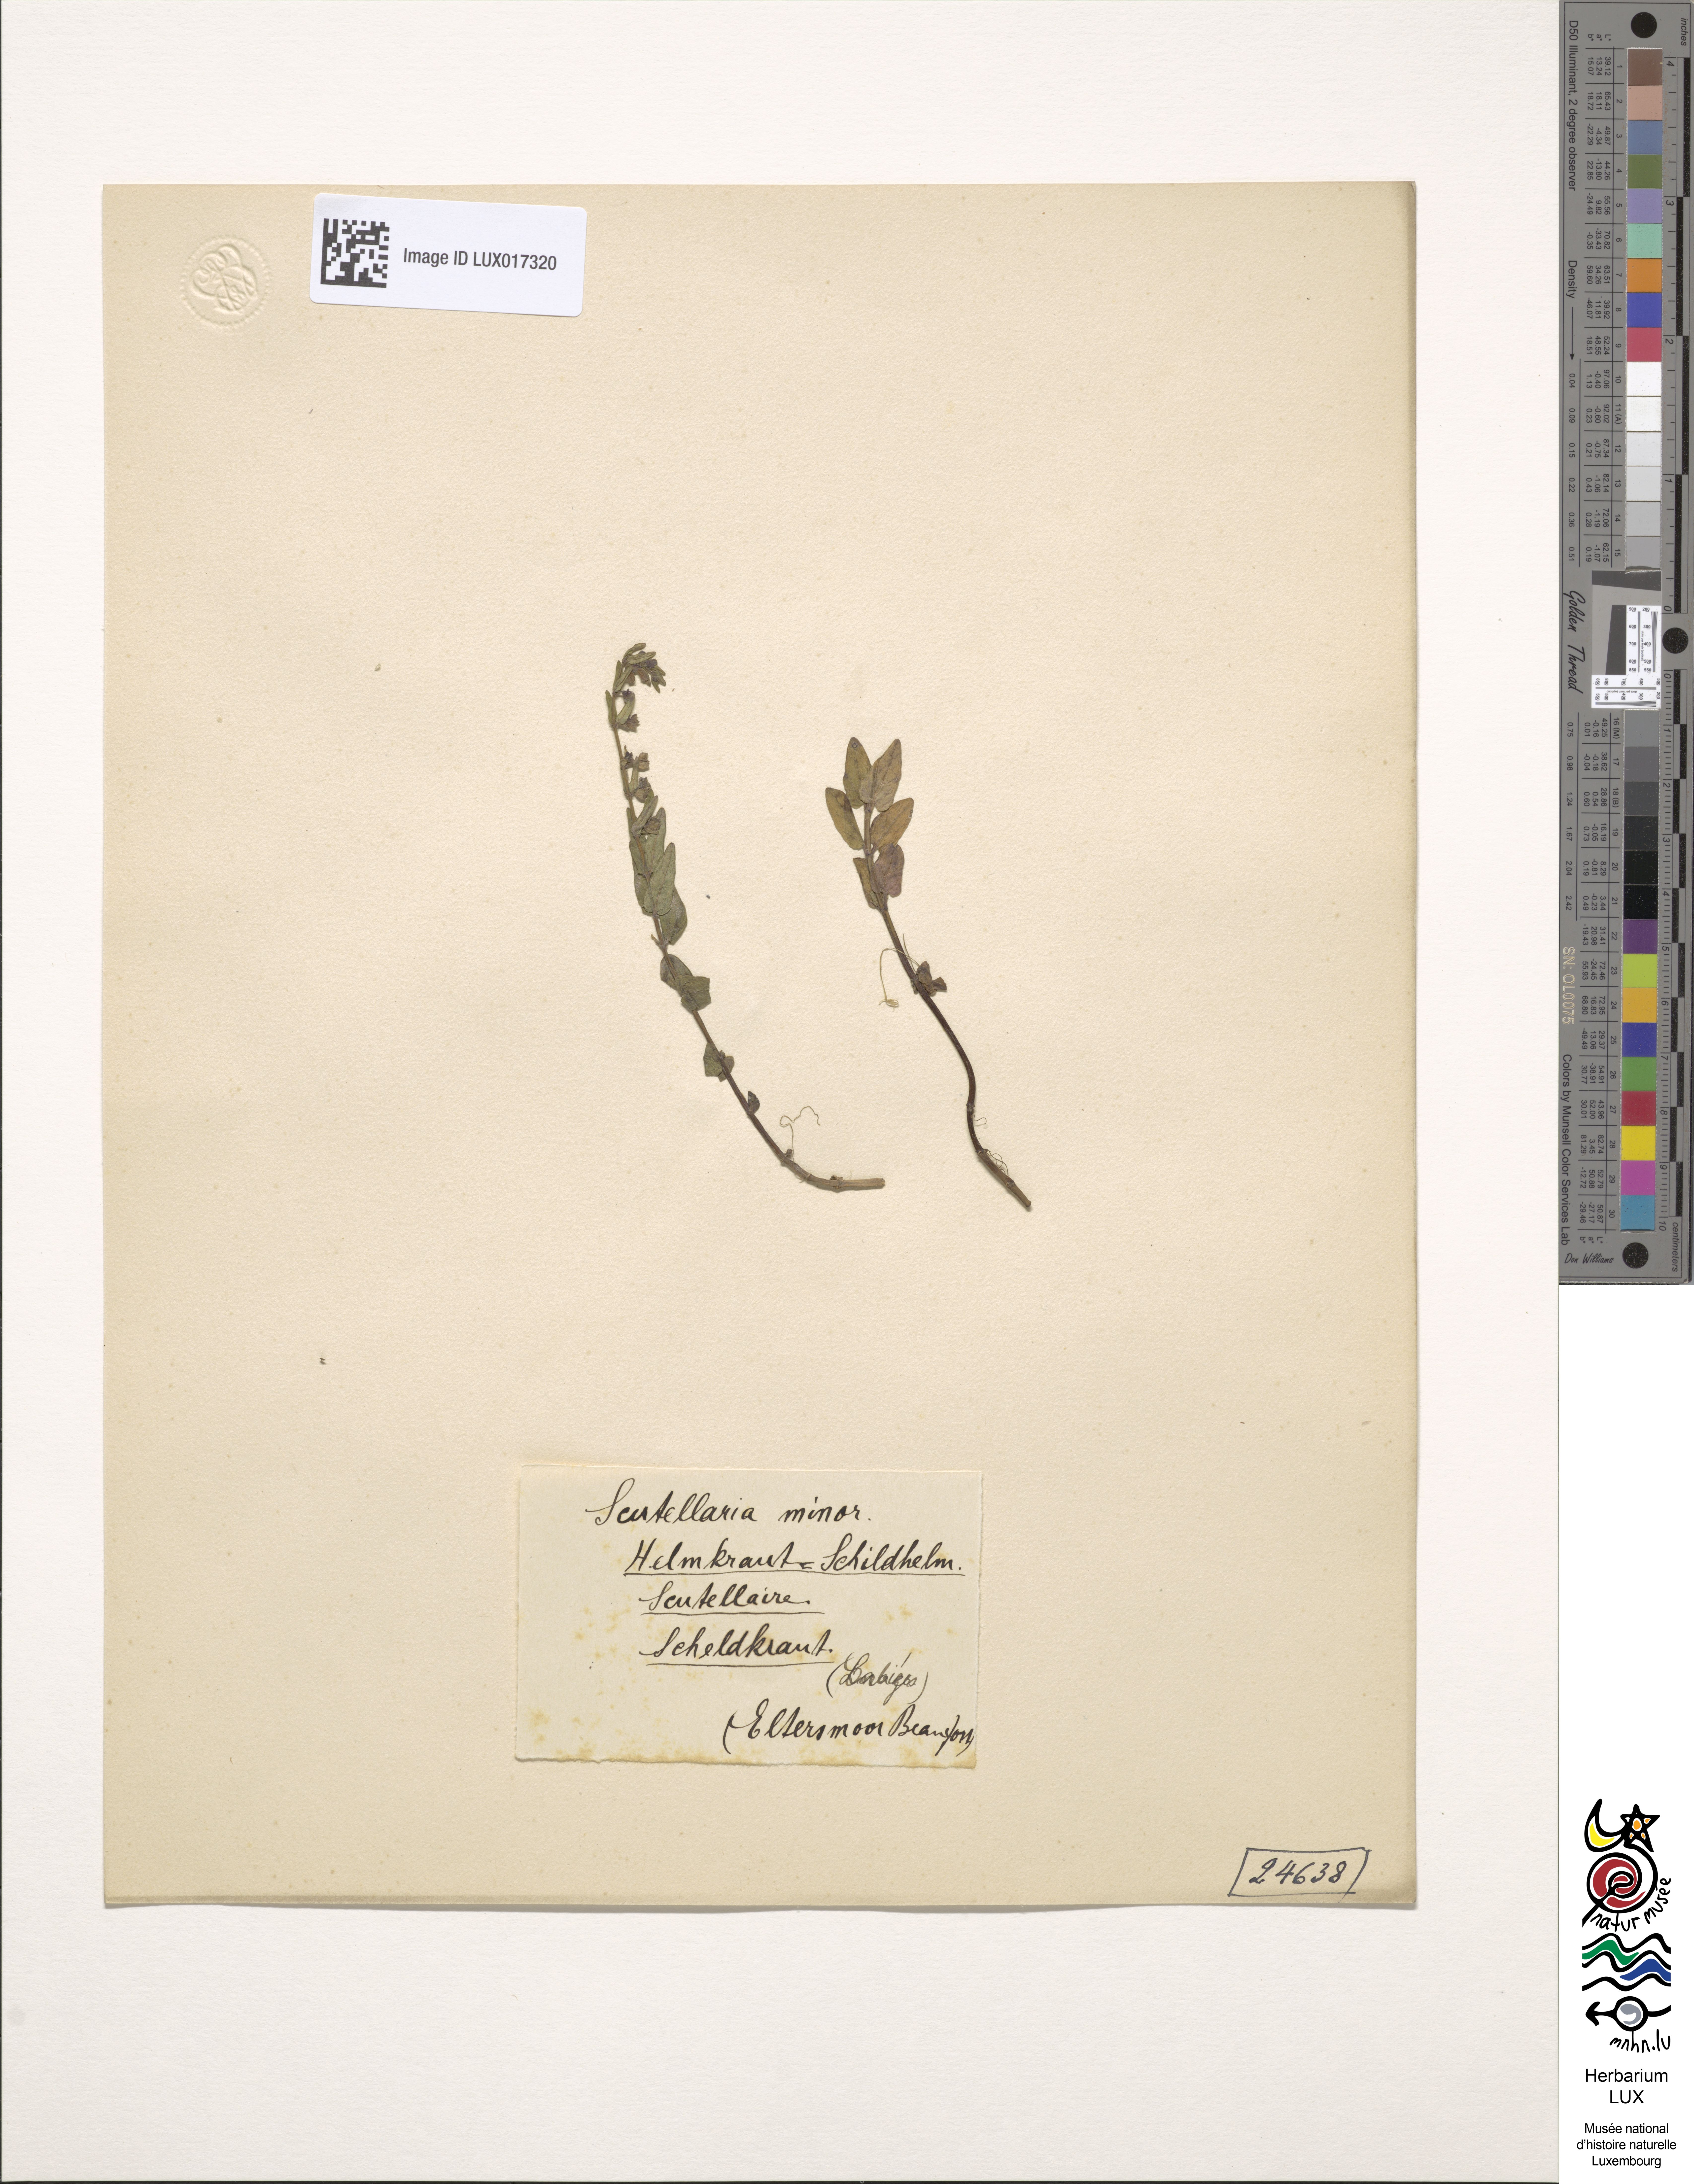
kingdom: Plantae
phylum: Tracheophyta
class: Magnoliopsida
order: Lamiales
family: Lamiaceae
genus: Scutellaria
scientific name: Scutellaria minor
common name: Lesser skullcap
